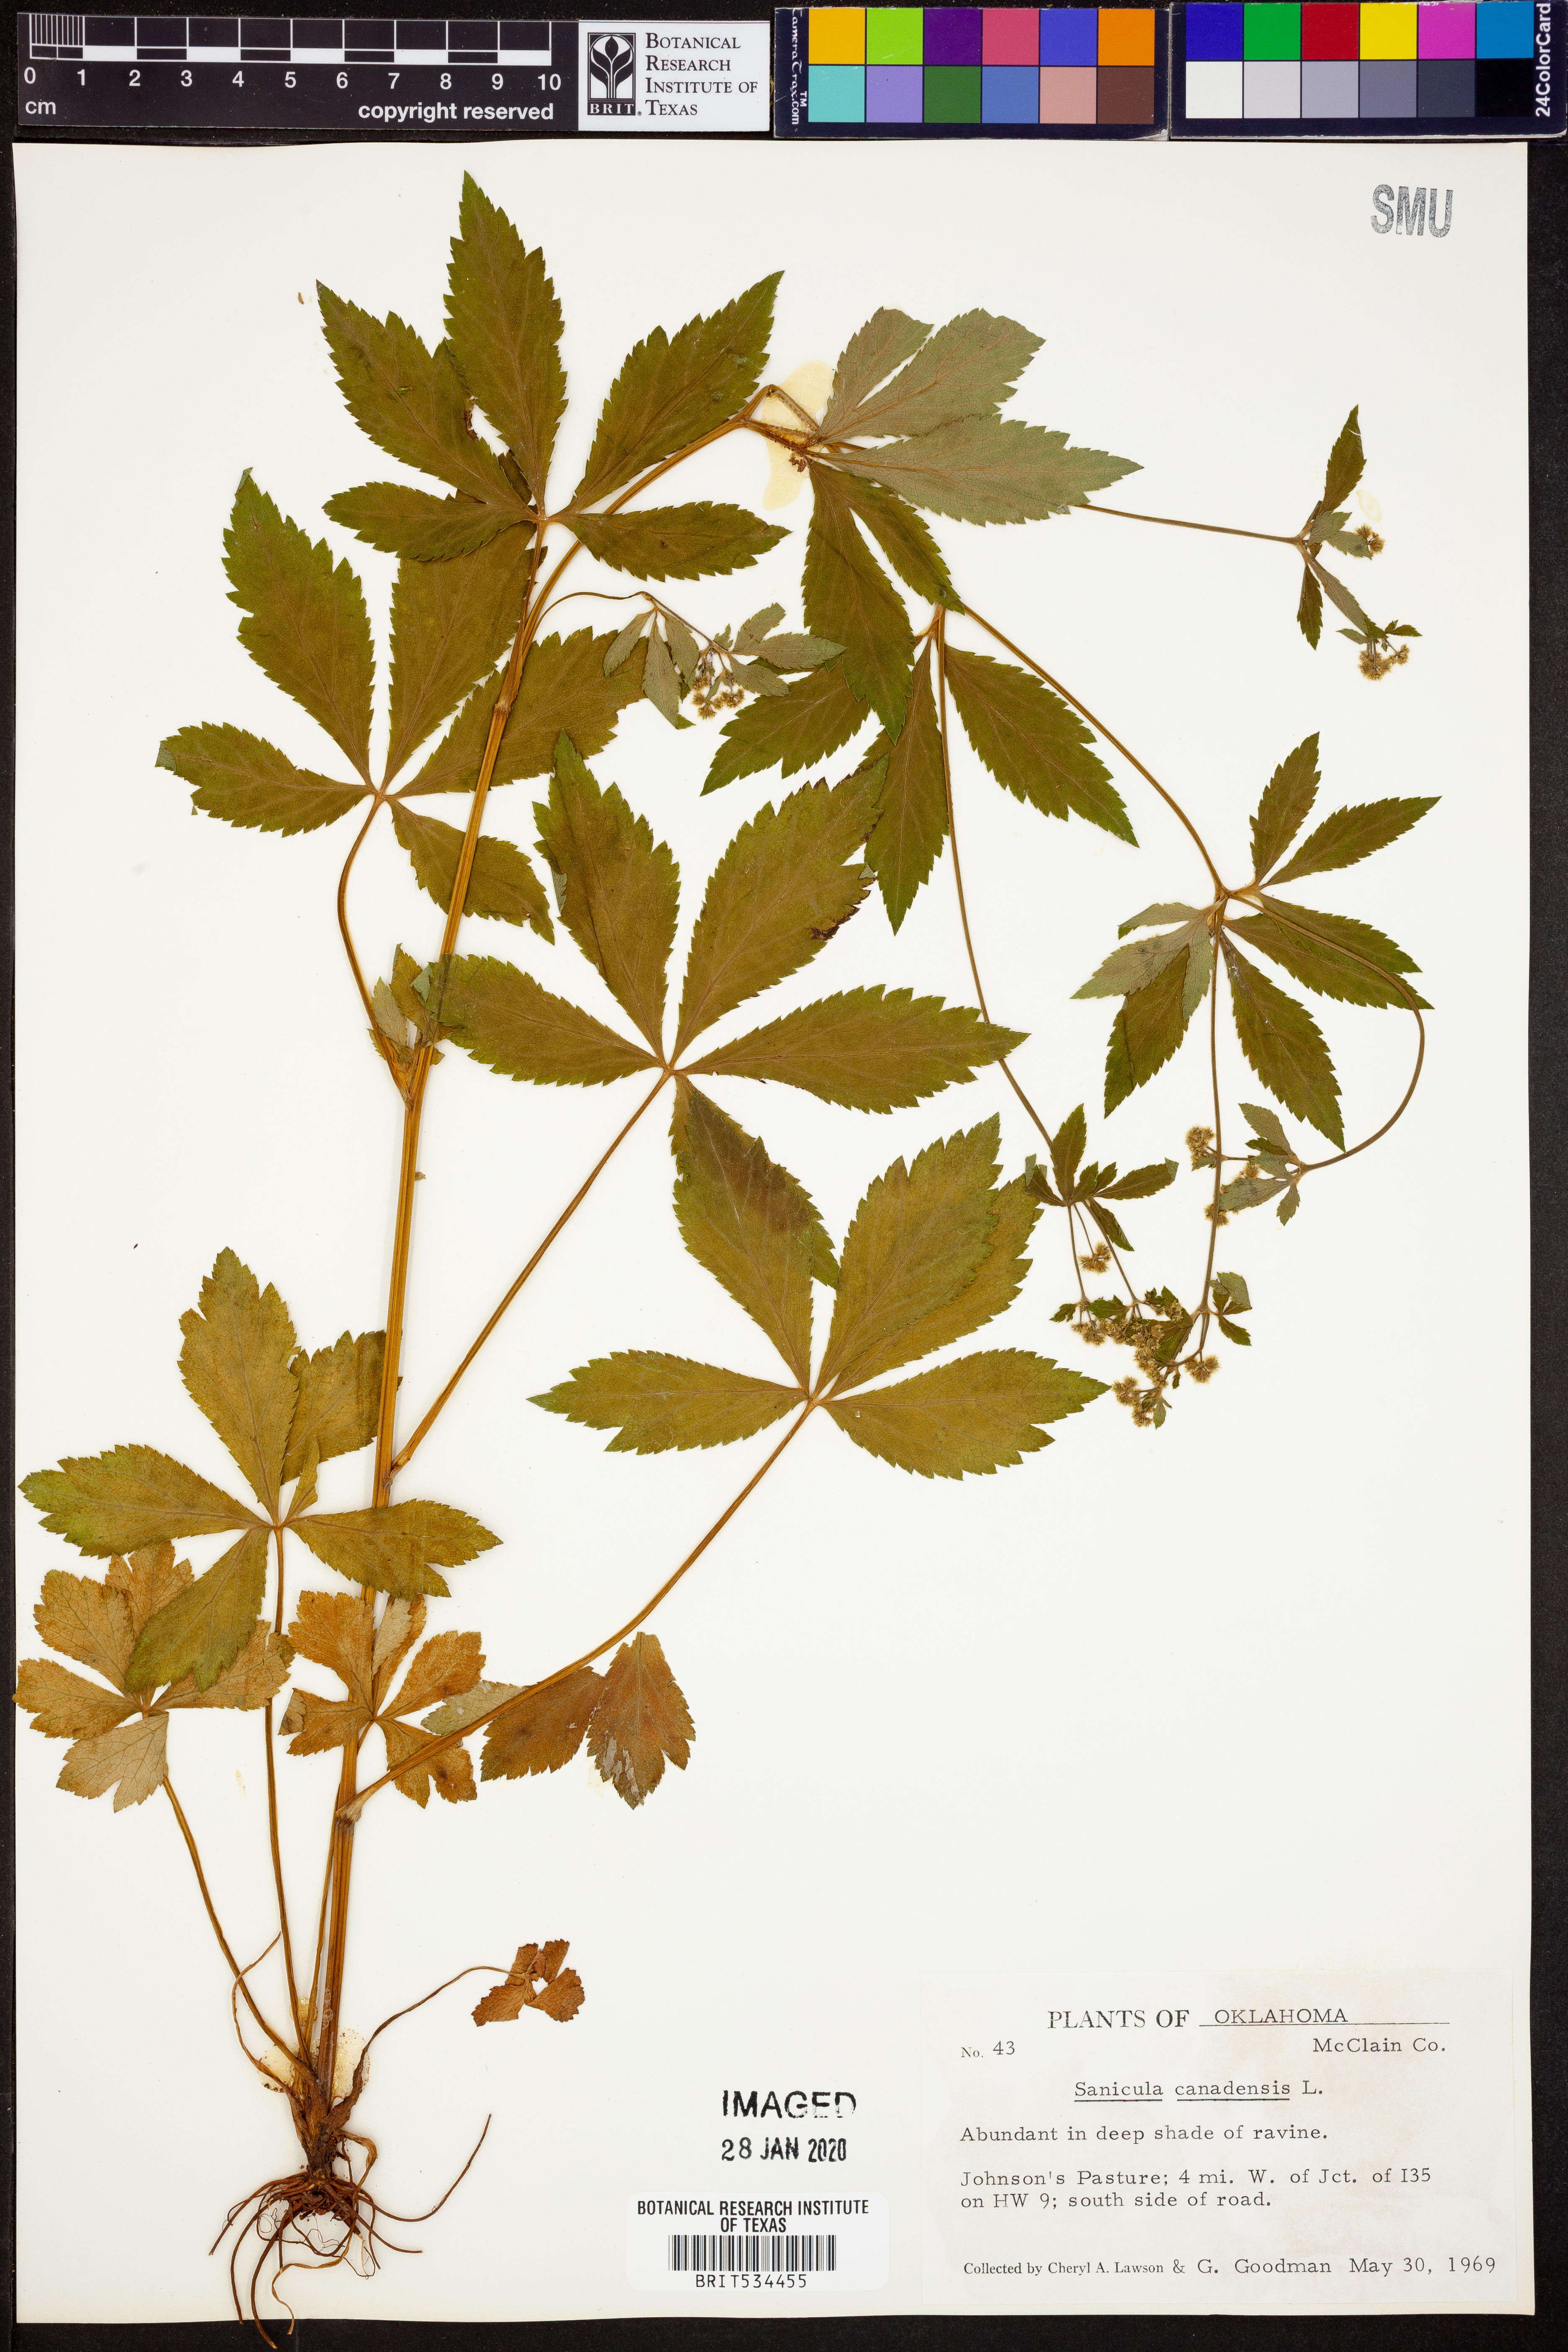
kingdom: Plantae
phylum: Tracheophyta
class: Magnoliopsida
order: Apiales
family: Apiaceae
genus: Sanicula
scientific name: Sanicula canadensis
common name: Canada sanicle
